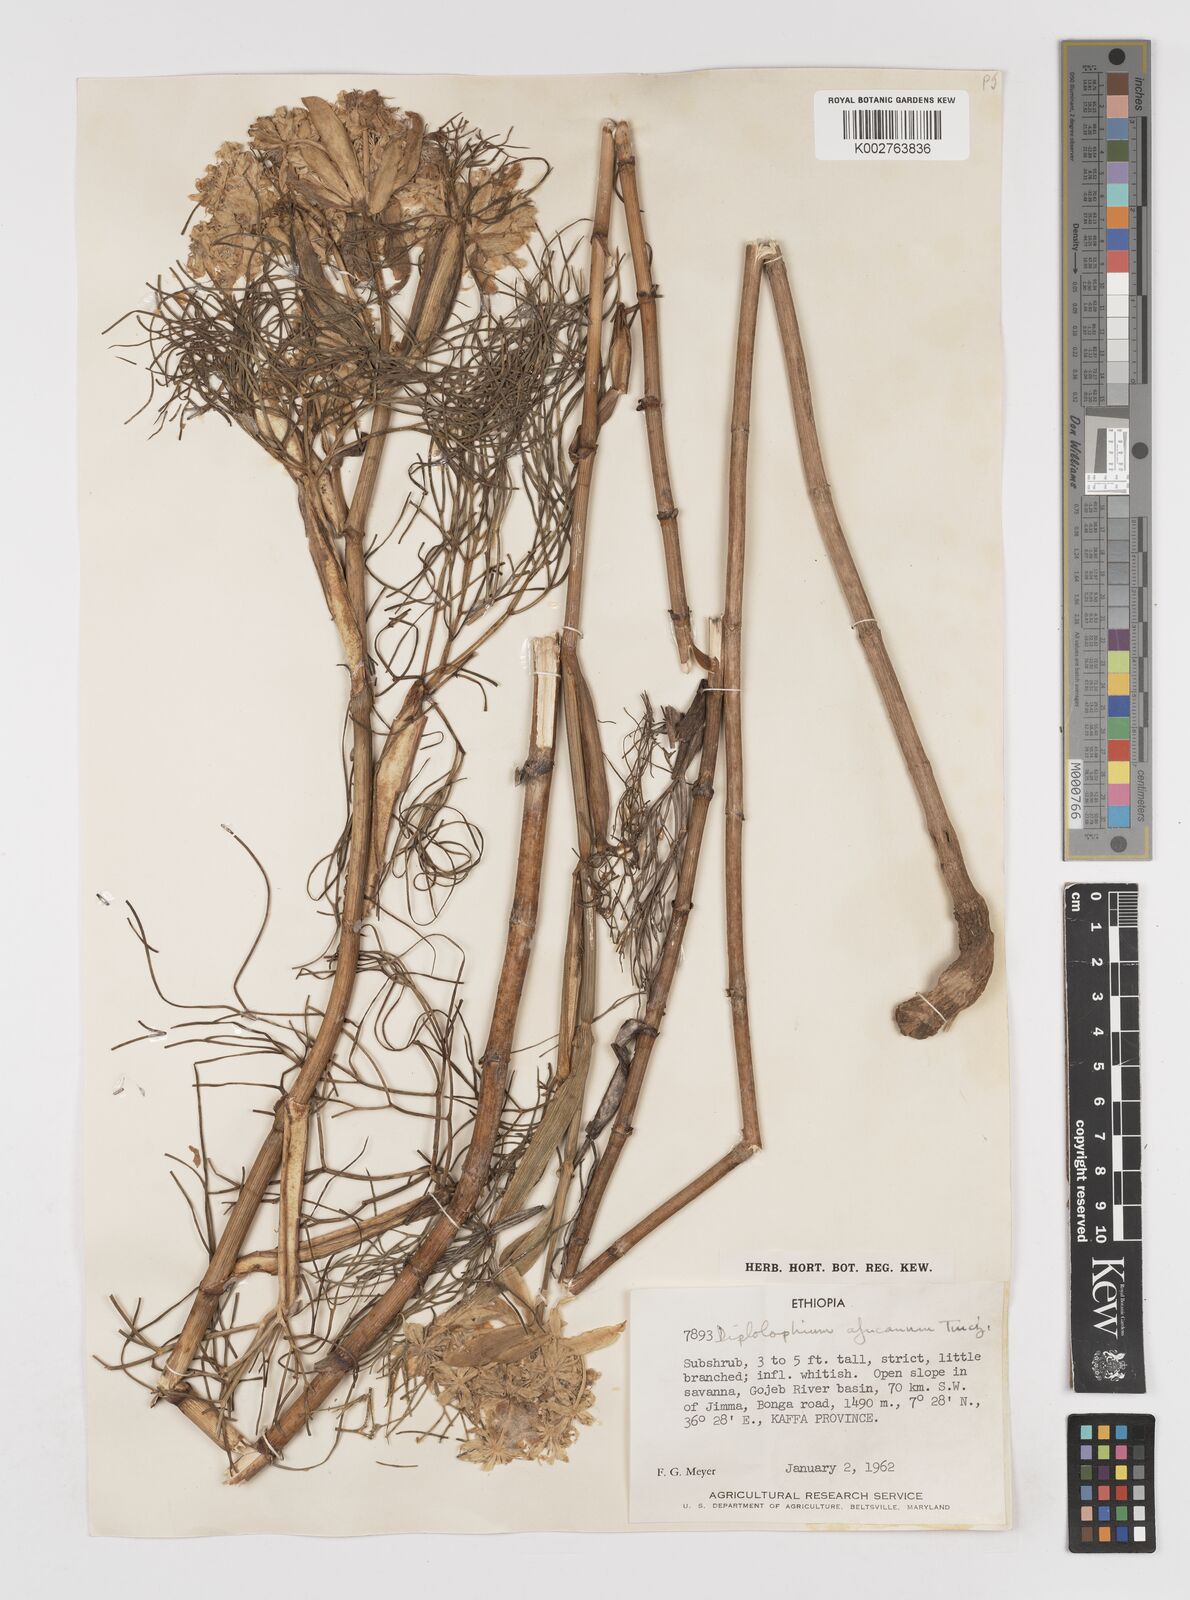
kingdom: Plantae
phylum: Tracheophyta
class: Magnoliopsida
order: Apiales
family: Apiaceae
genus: Diplolophium
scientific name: Diplolophium africanum
